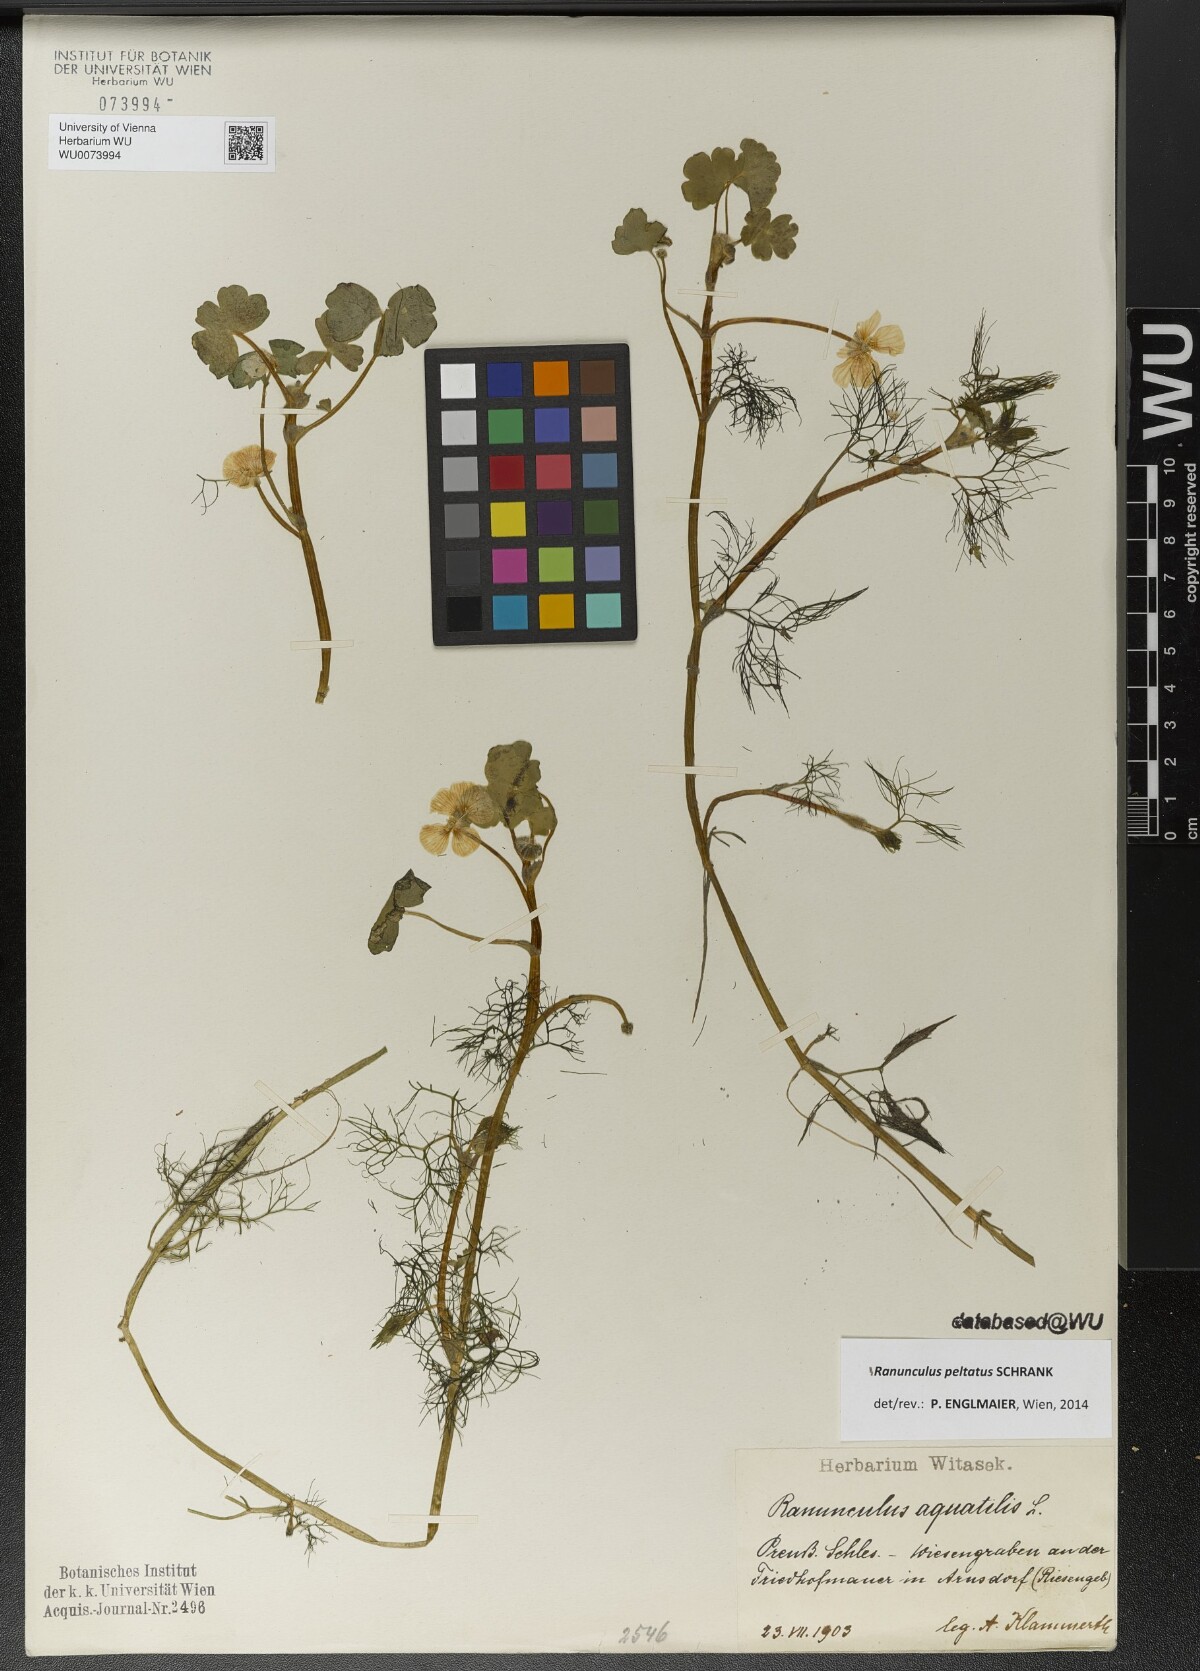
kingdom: Plantae
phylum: Tracheophyta
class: Magnoliopsida
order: Ranunculales
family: Ranunculaceae
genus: Ranunculus
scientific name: Ranunculus peltatus
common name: Pond water-crowfoot
